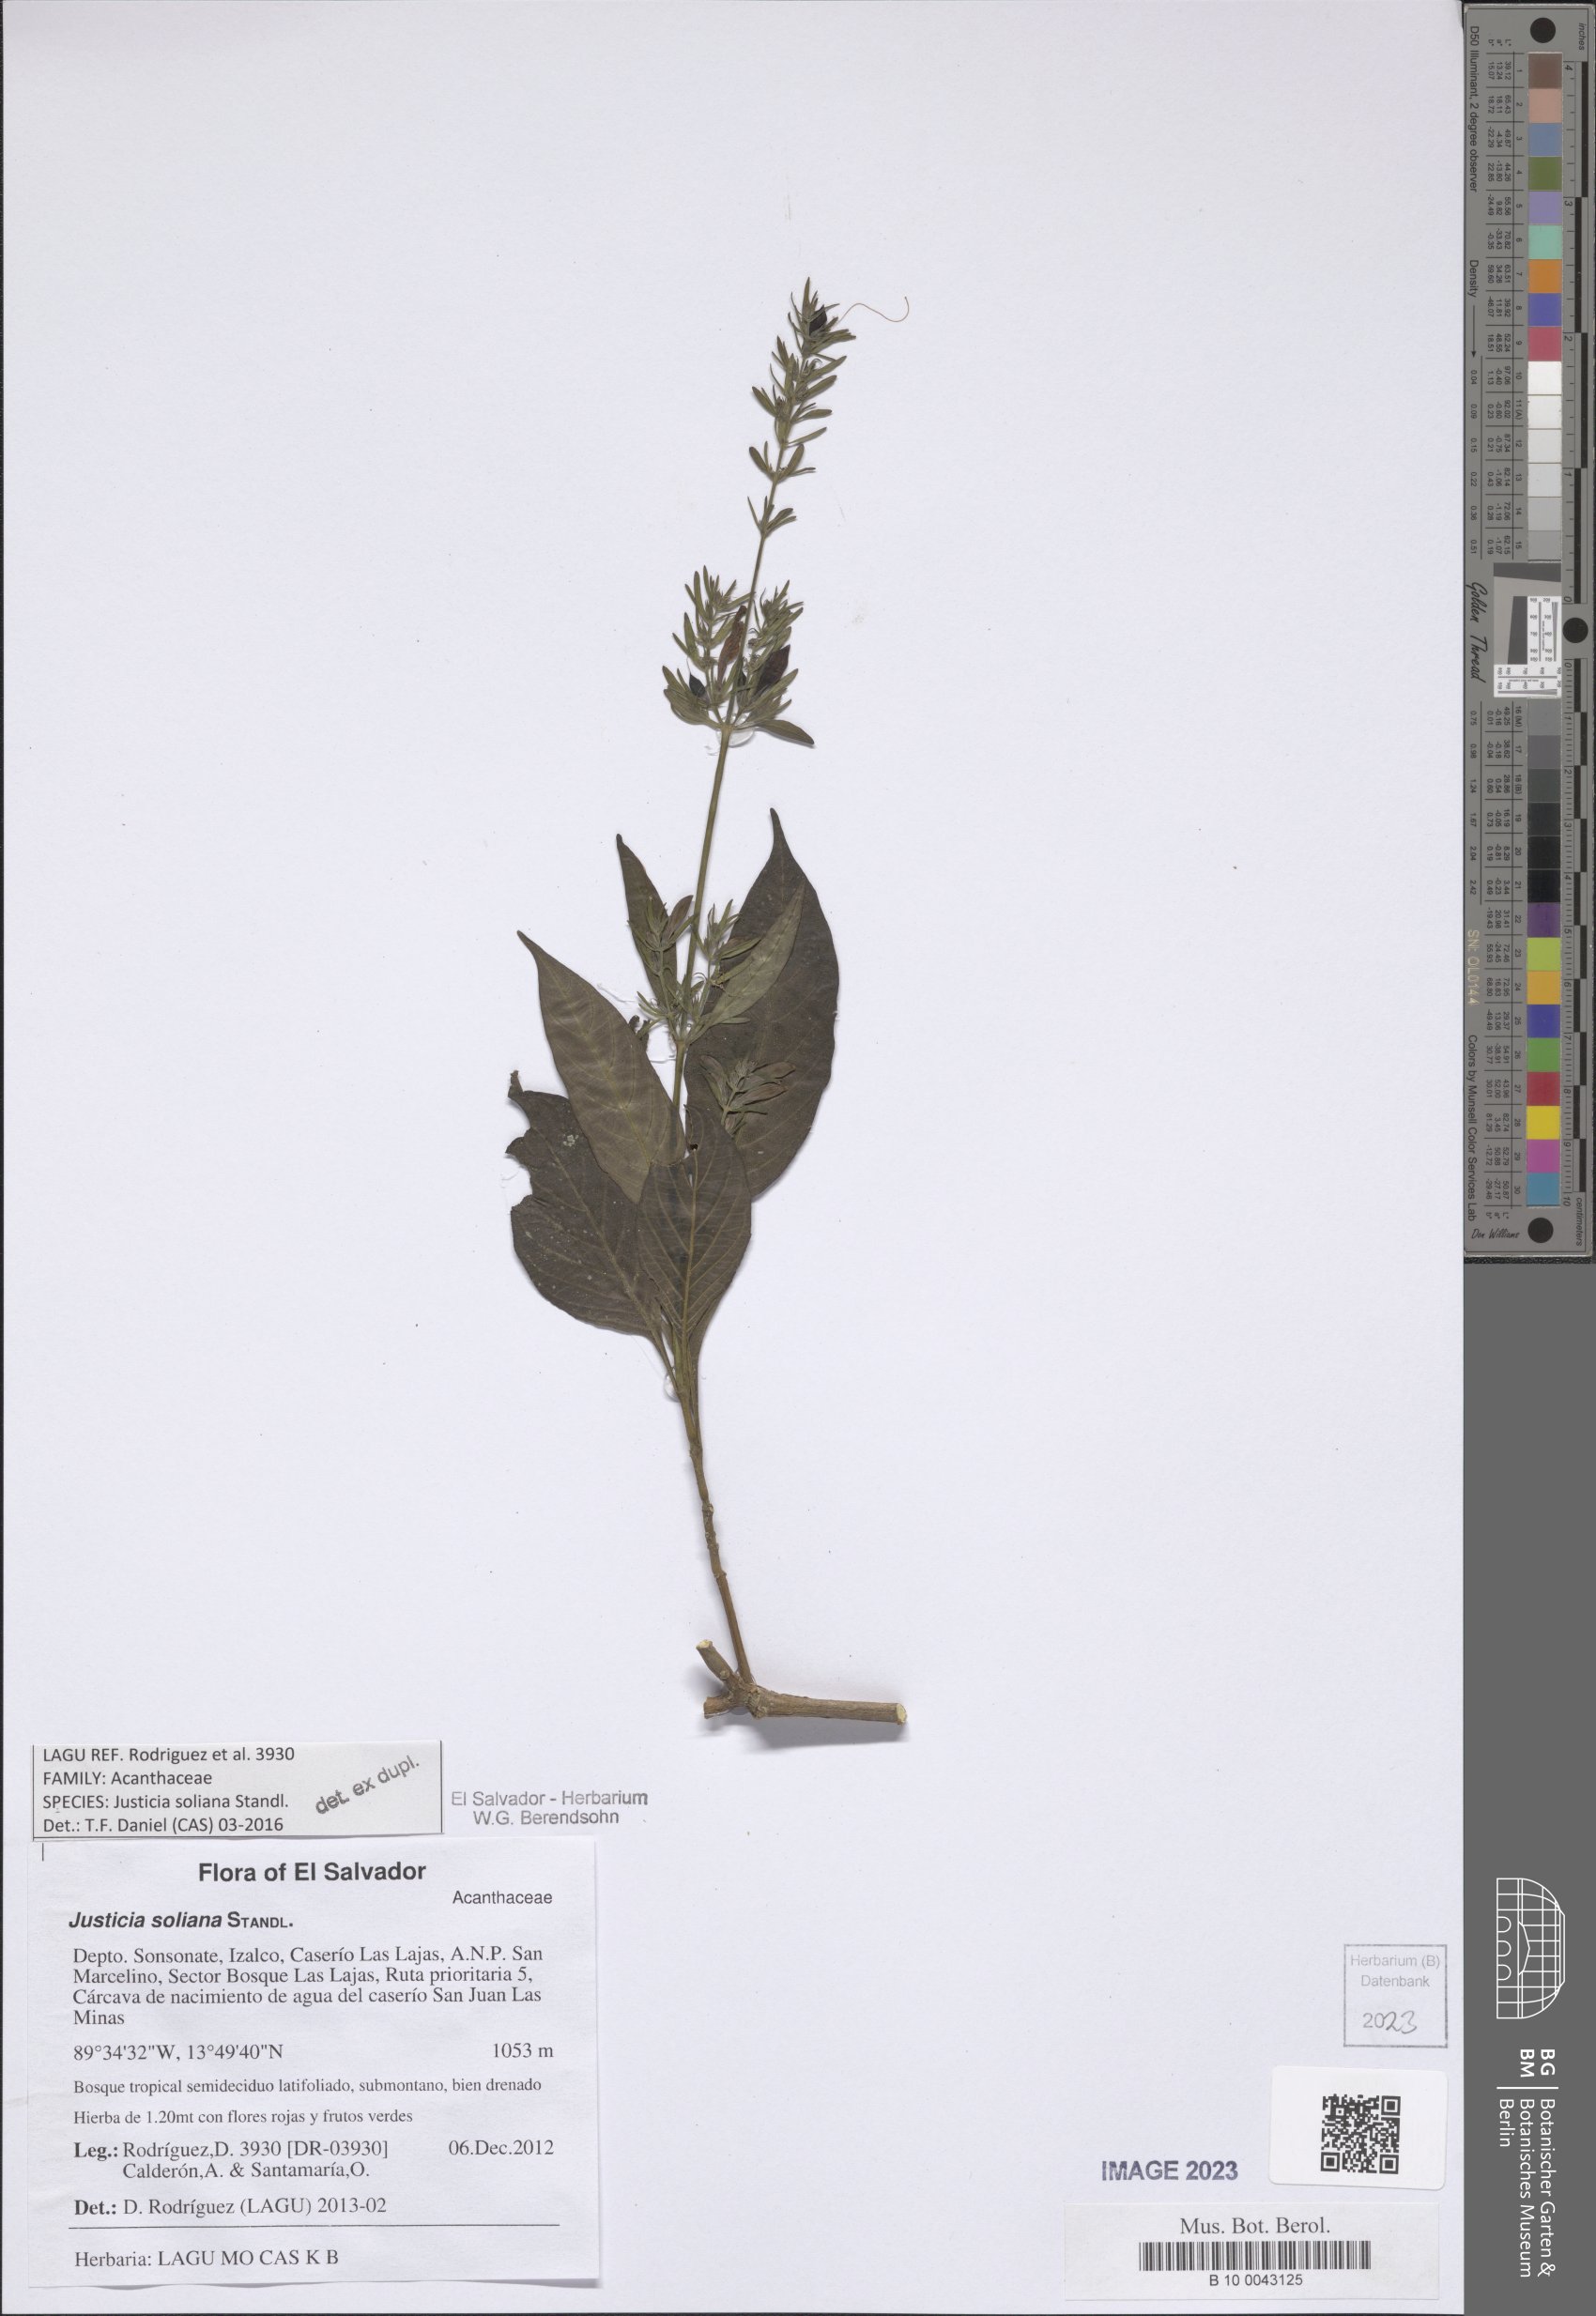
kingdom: Plantae
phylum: Tracheophyta
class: Magnoliopsida
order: Lamiales
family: Acanthaceae
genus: Justicia
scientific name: Justicia soliana
